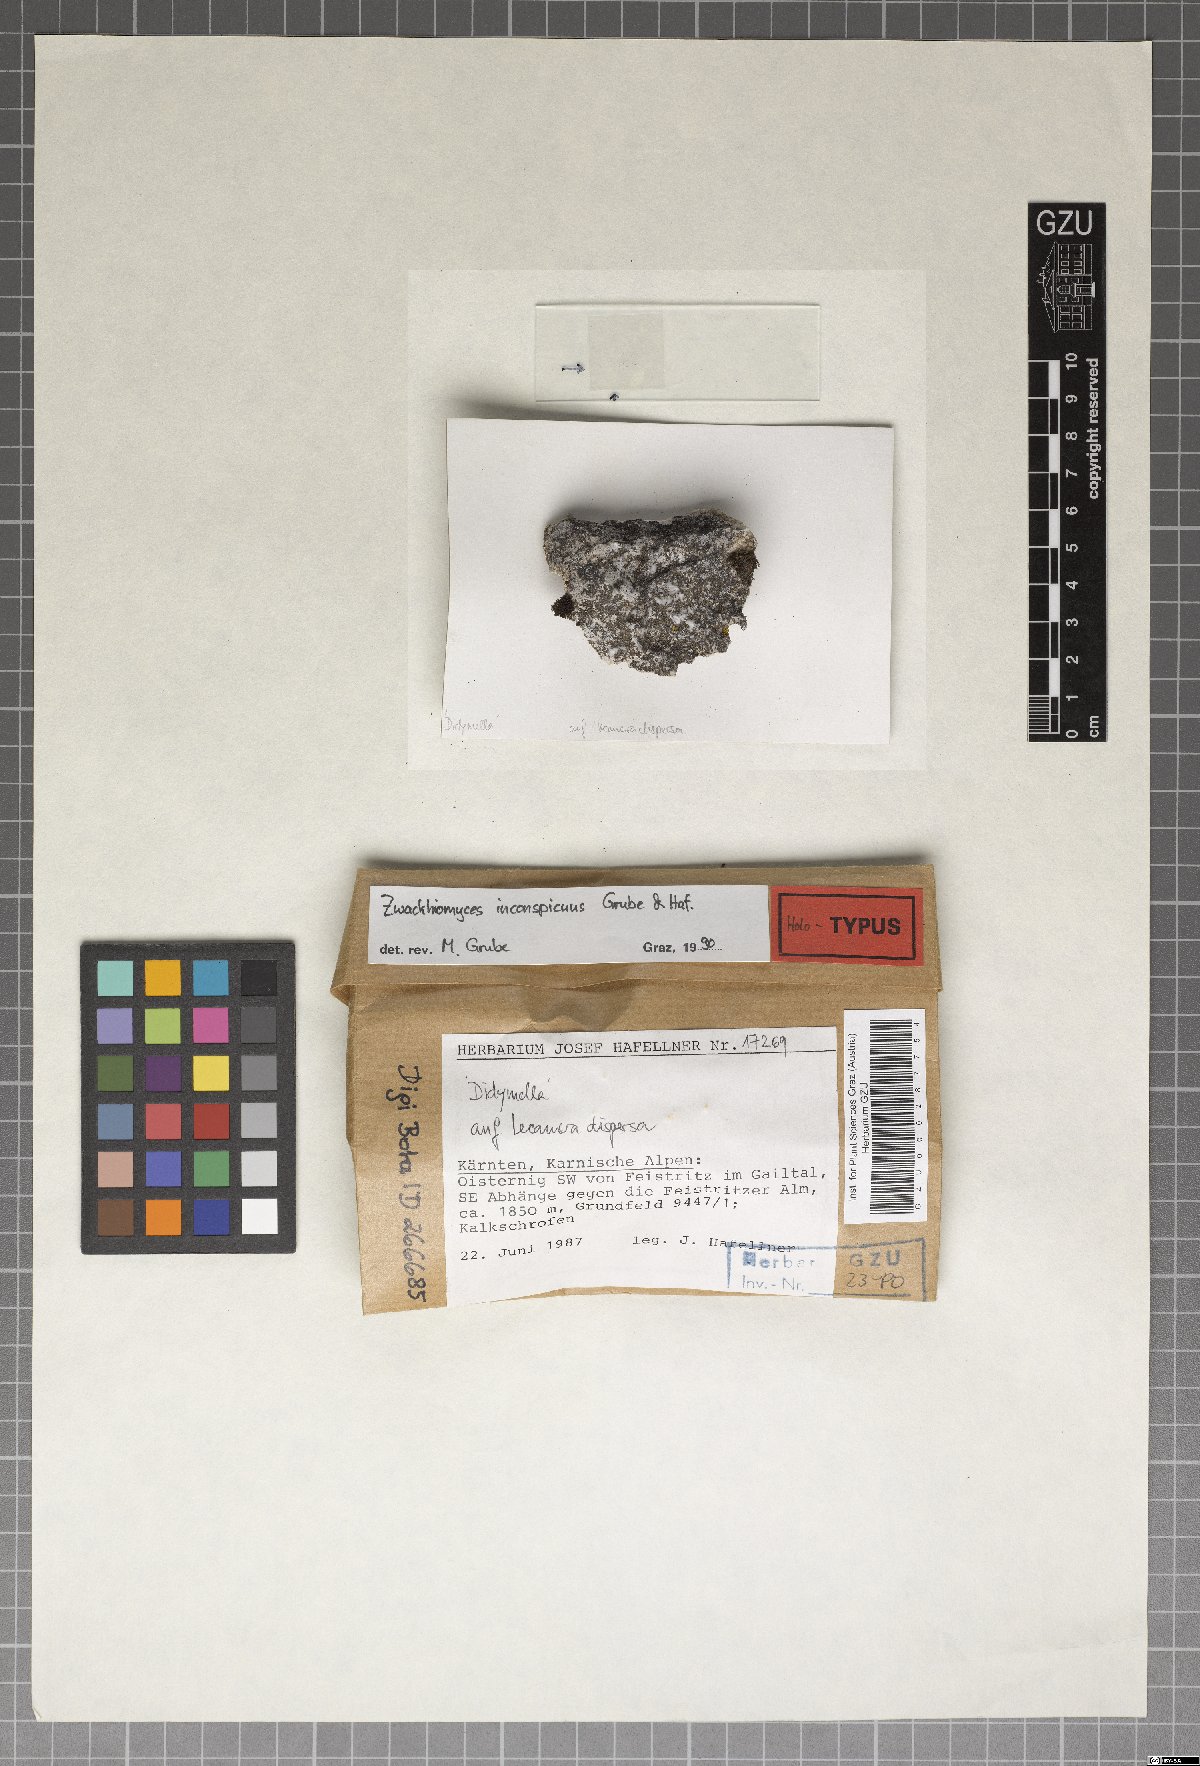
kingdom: Fungi
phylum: Ascomycota
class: Dothideomycetes
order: Collemopsidiales
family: Xanthopyreniaceae
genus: Zwackhiomyces
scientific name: Zwackhiomyces inconspicuus
